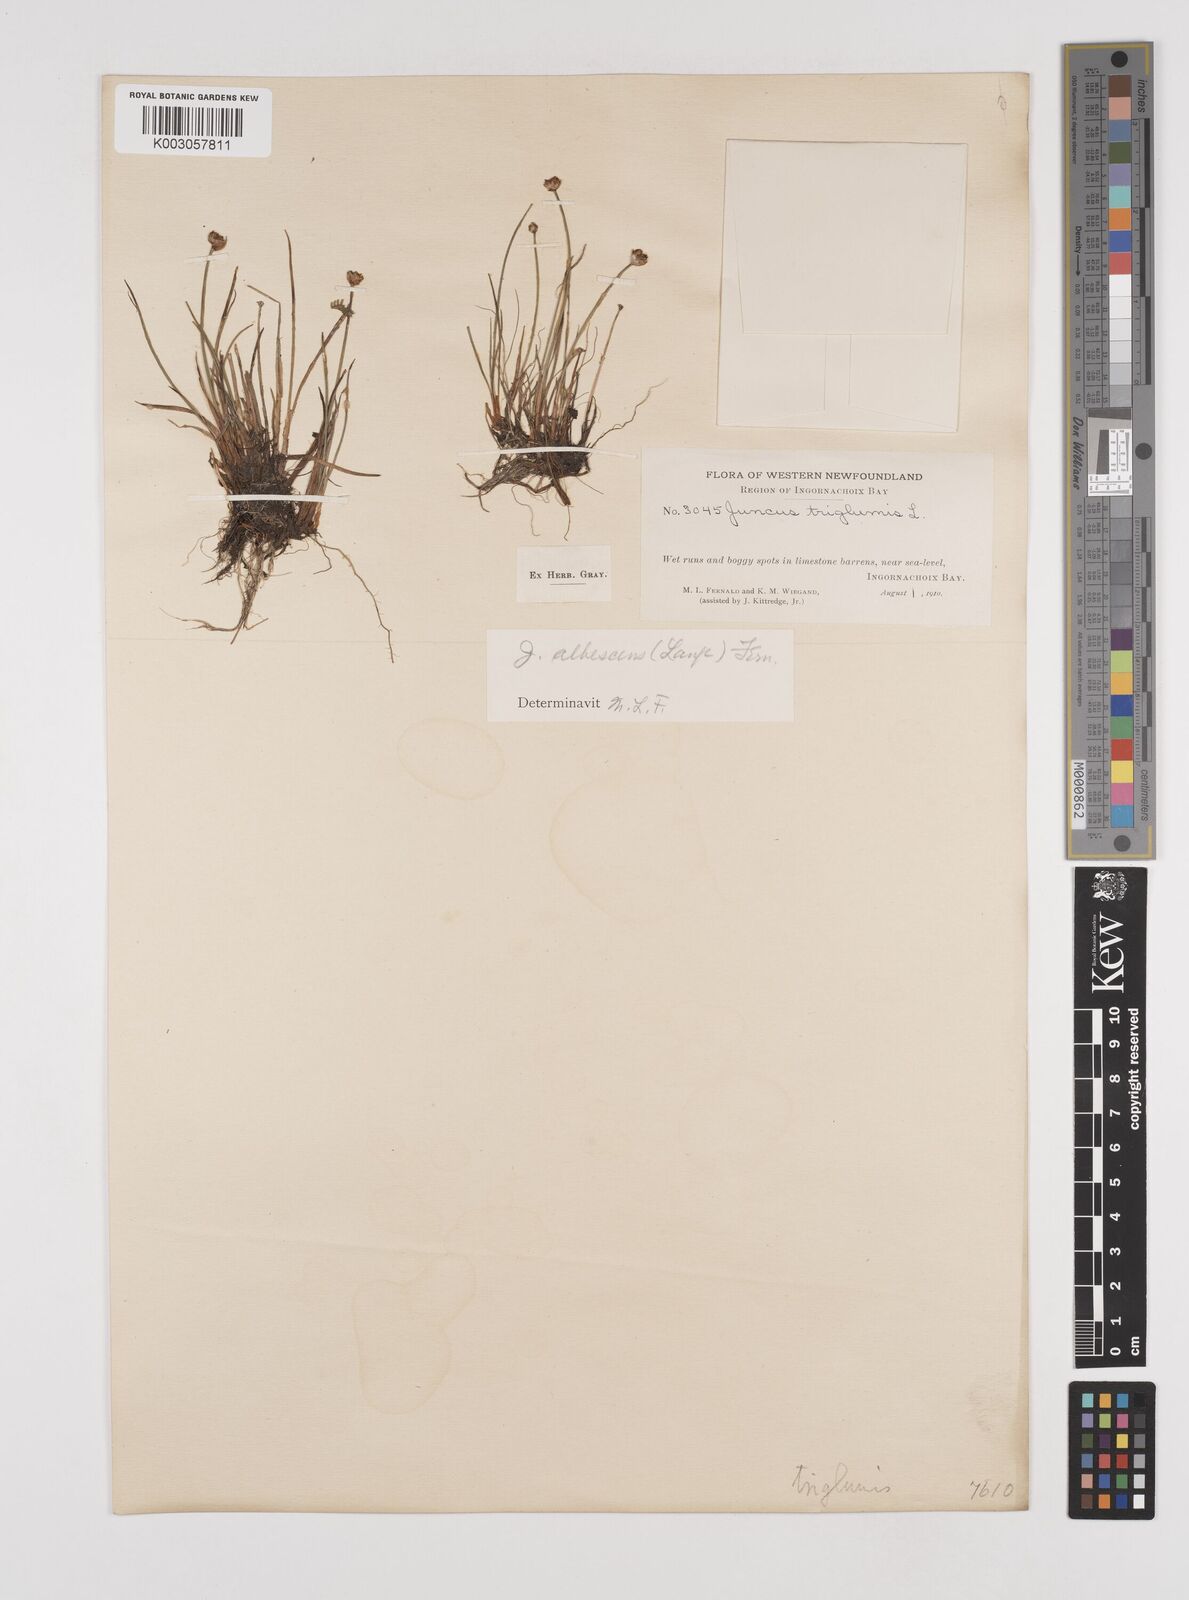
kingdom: Plantae
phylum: Tracheophyta
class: Liliopsida
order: Poales
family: Juncaceae
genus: Juncus
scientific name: Juncus triglumis
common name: Three-flowered rush
